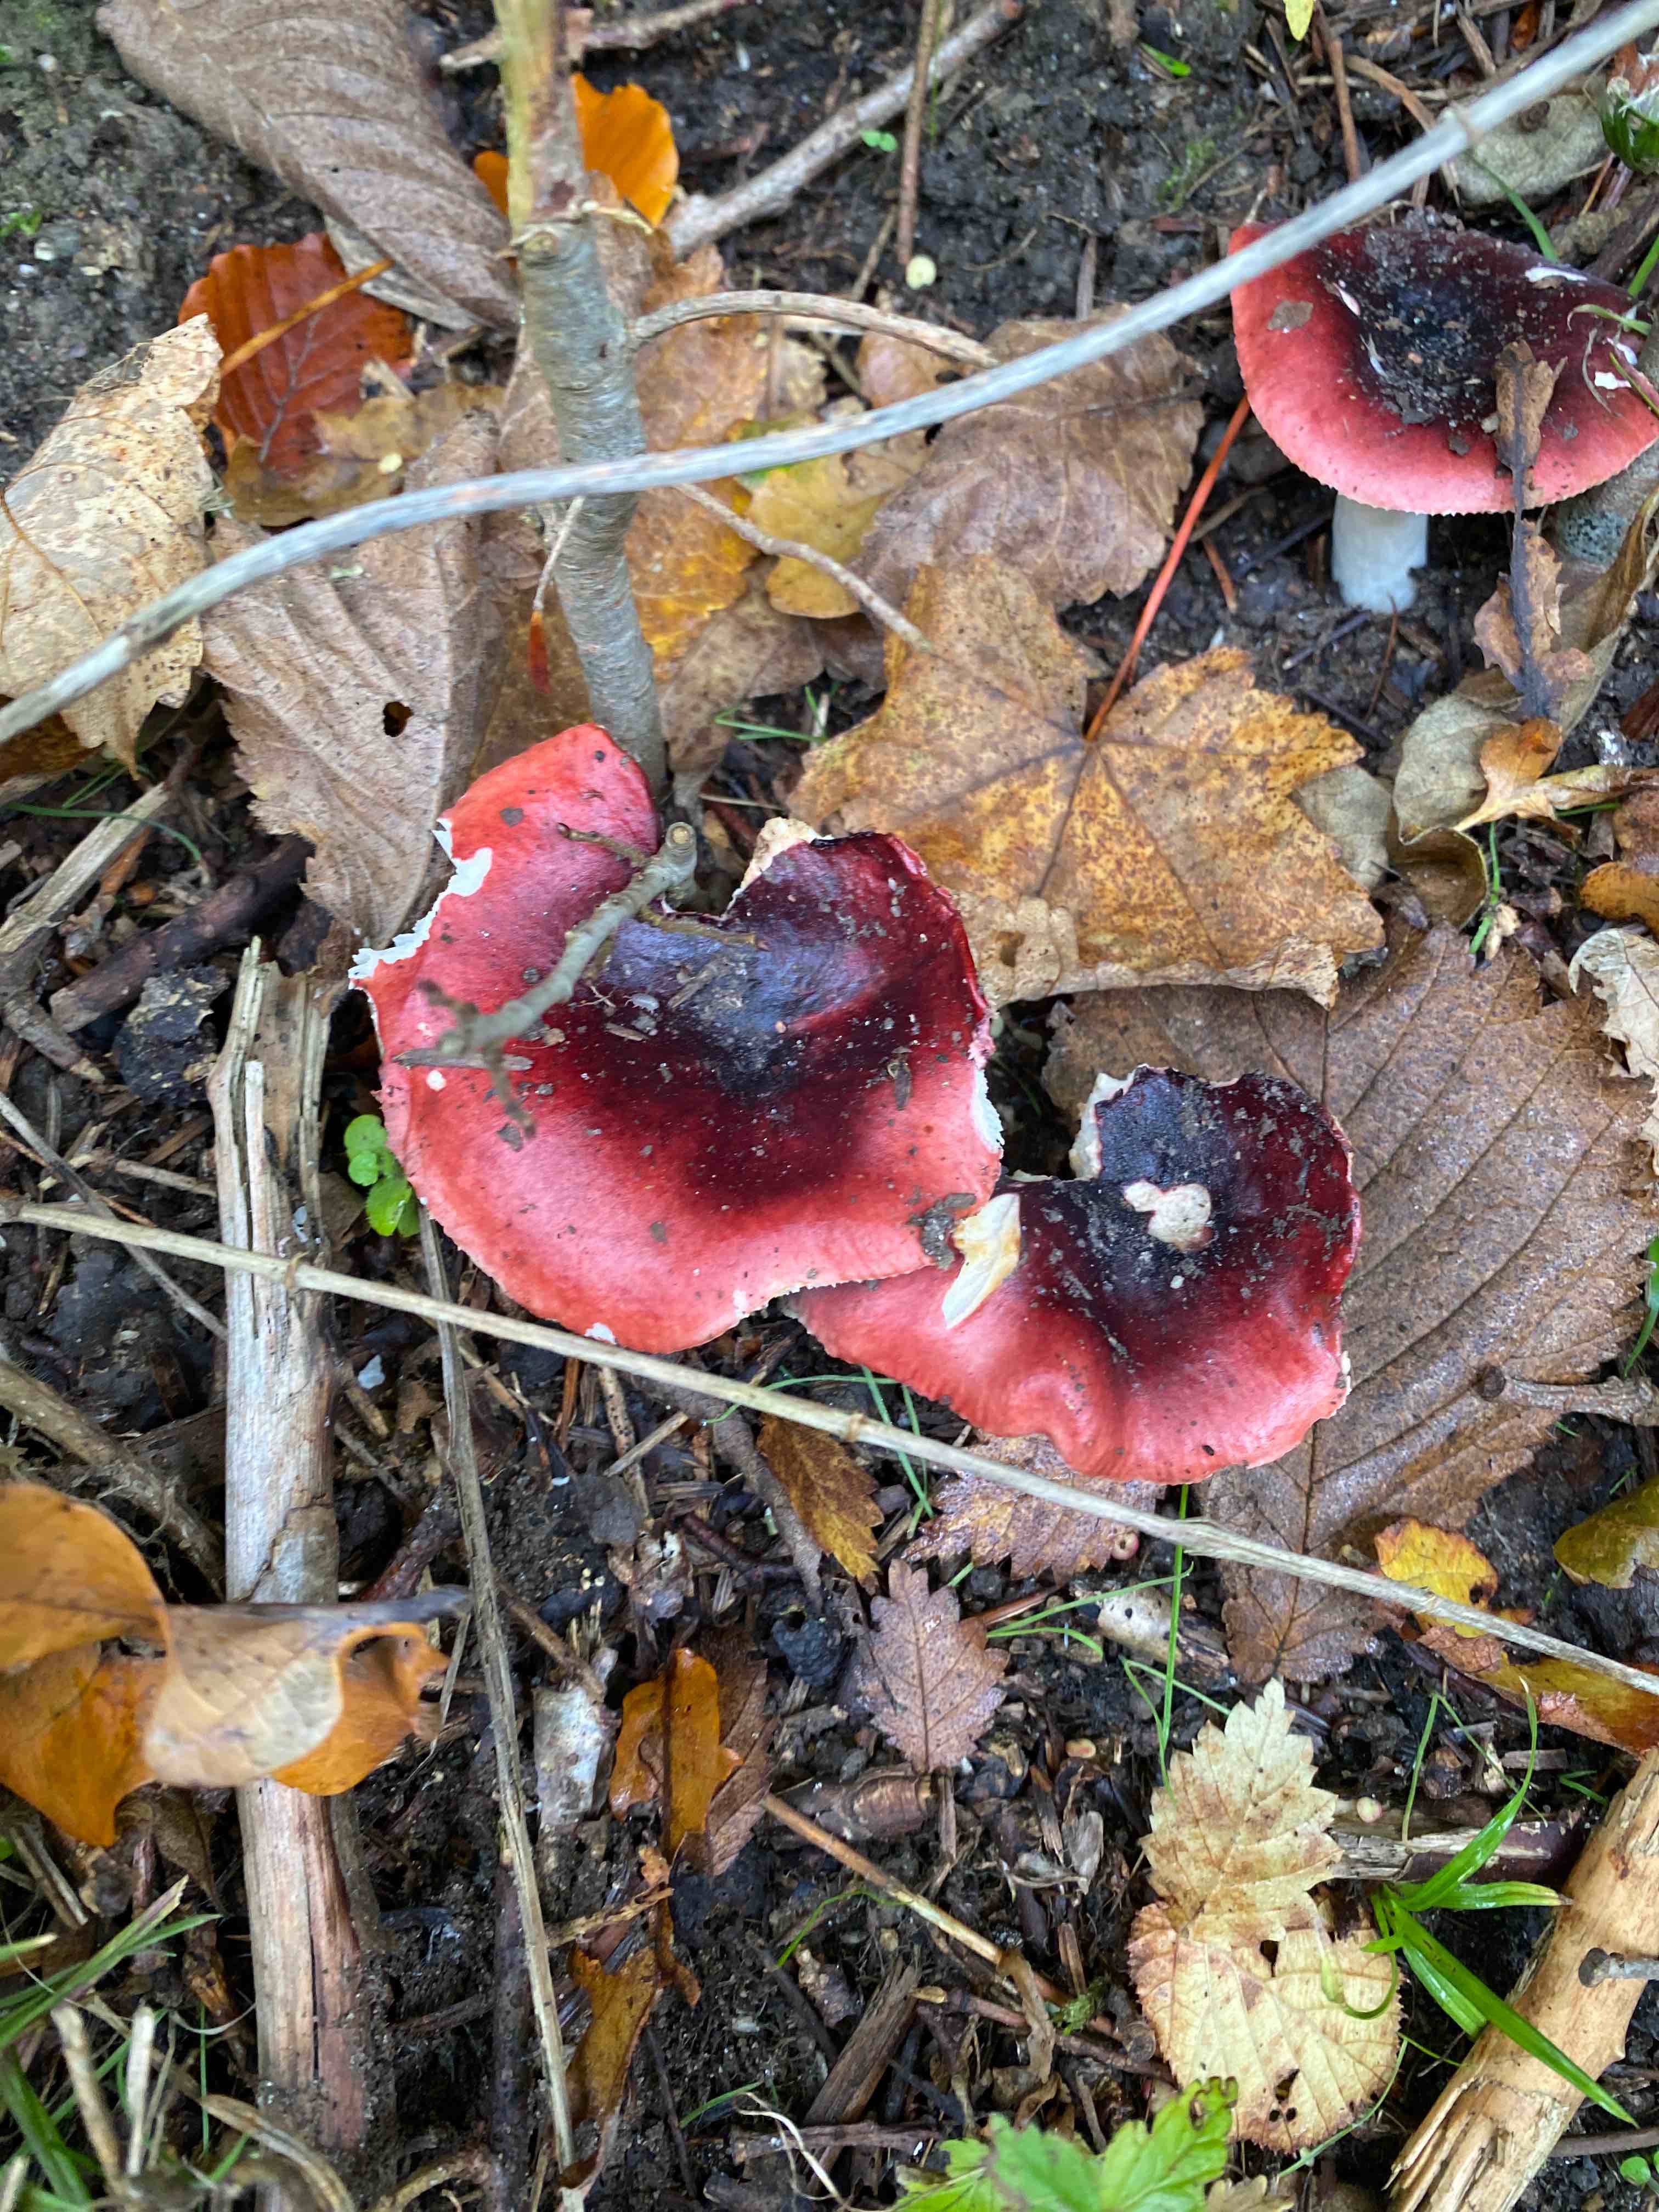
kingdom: Fungi
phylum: Basidiomycota
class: Agaricomycetes
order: Russulales
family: Russulaceae
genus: Russula
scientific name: Russula
